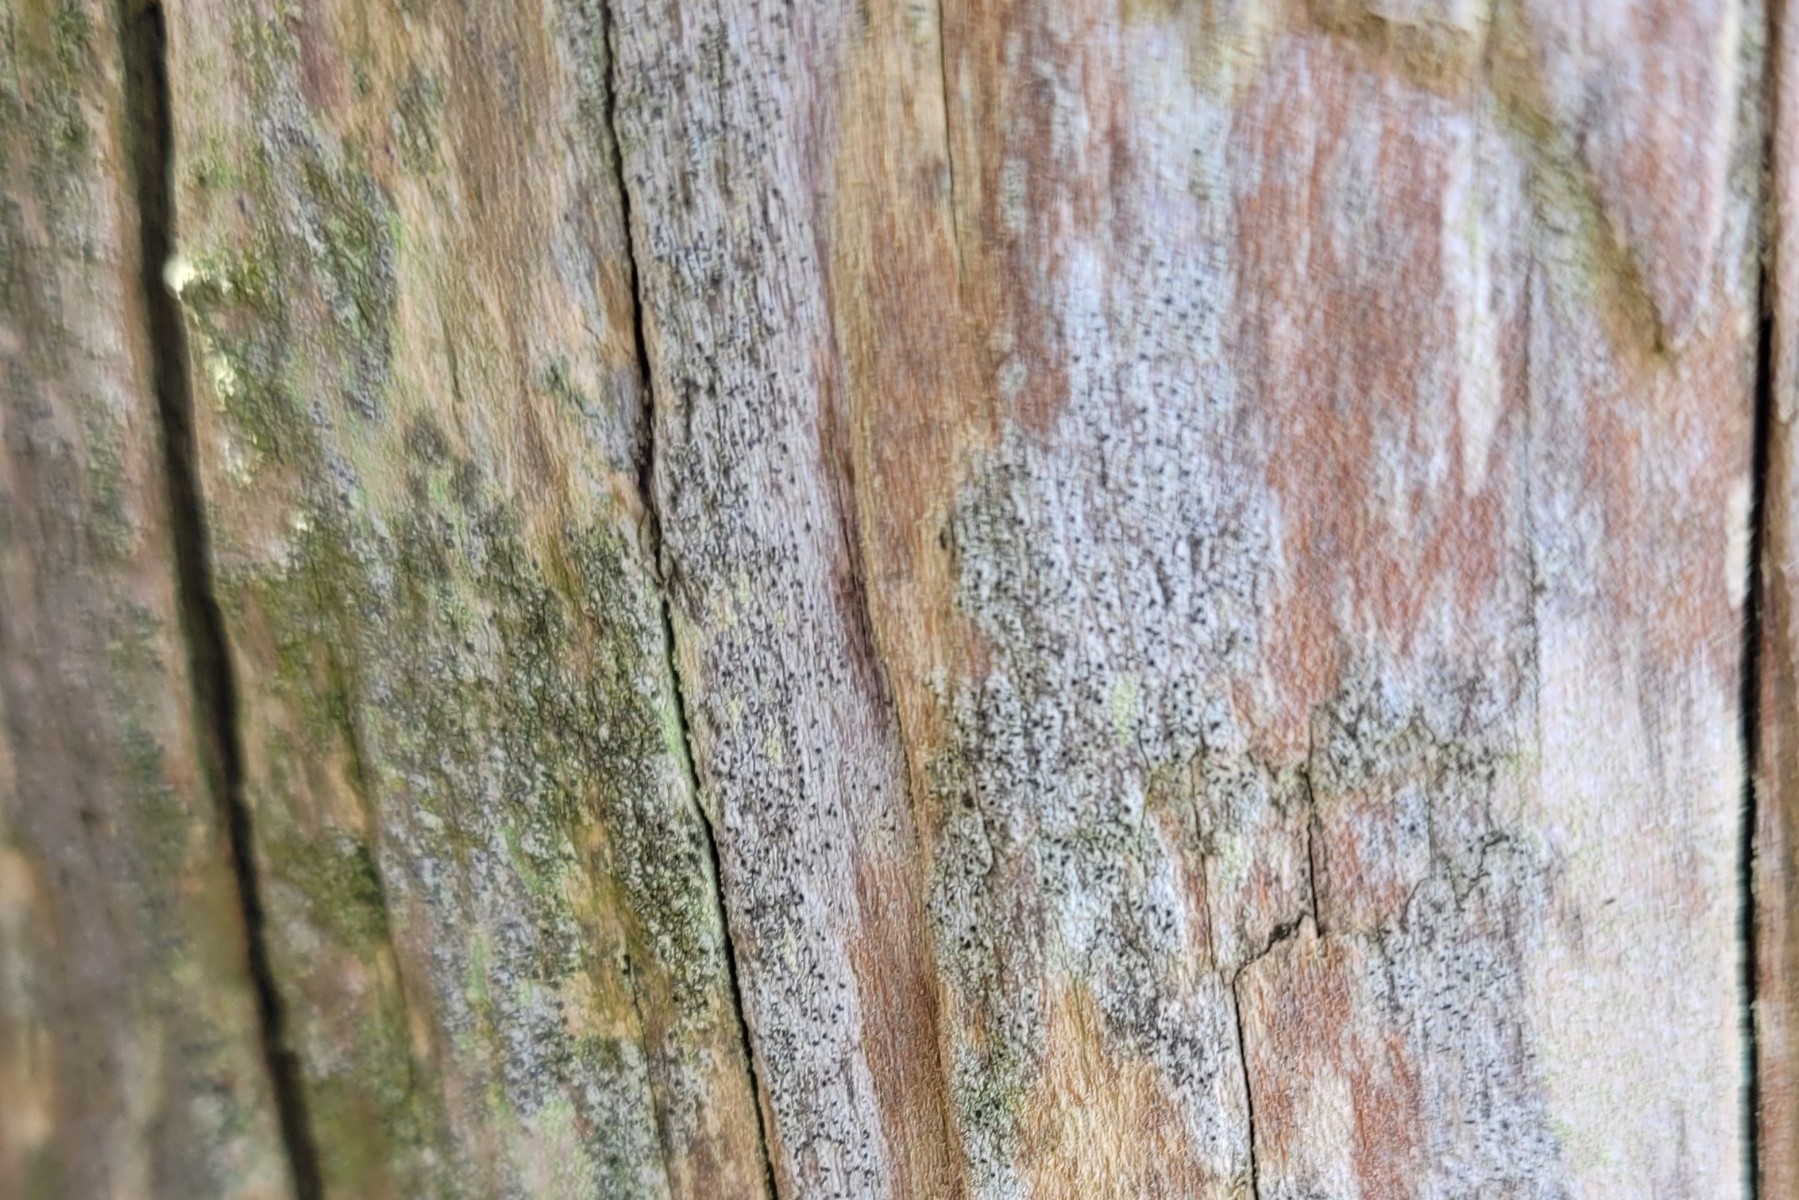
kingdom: Fungi
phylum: Ascomycota
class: Lecanoromycetes
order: Lecanorales
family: Ramalinaceae
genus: Cliostomum
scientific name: Cliostomum griffithii
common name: trefarvet tensporelav
